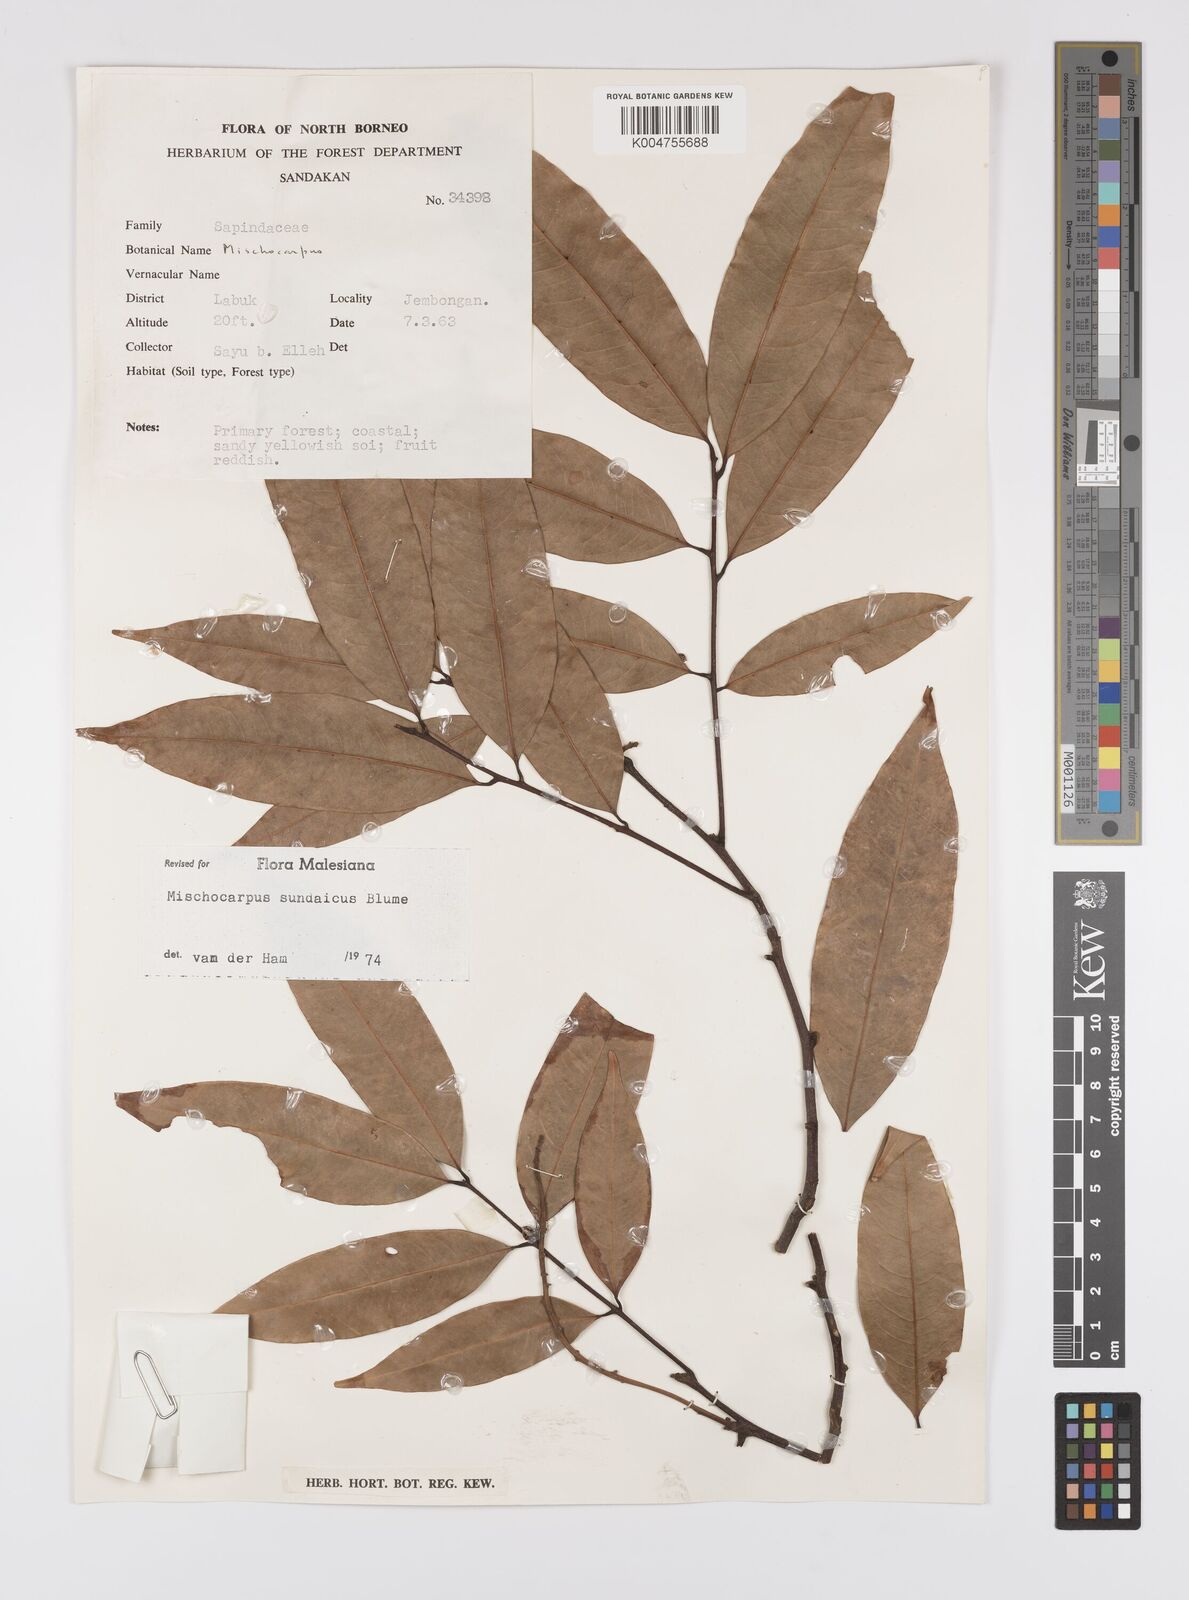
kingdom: Plantae
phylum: Tracheophyta
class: Magnoliopsida
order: Sapindales
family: Sapindaceae
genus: Mischocarpus
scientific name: Mischocarpus sundaicus
